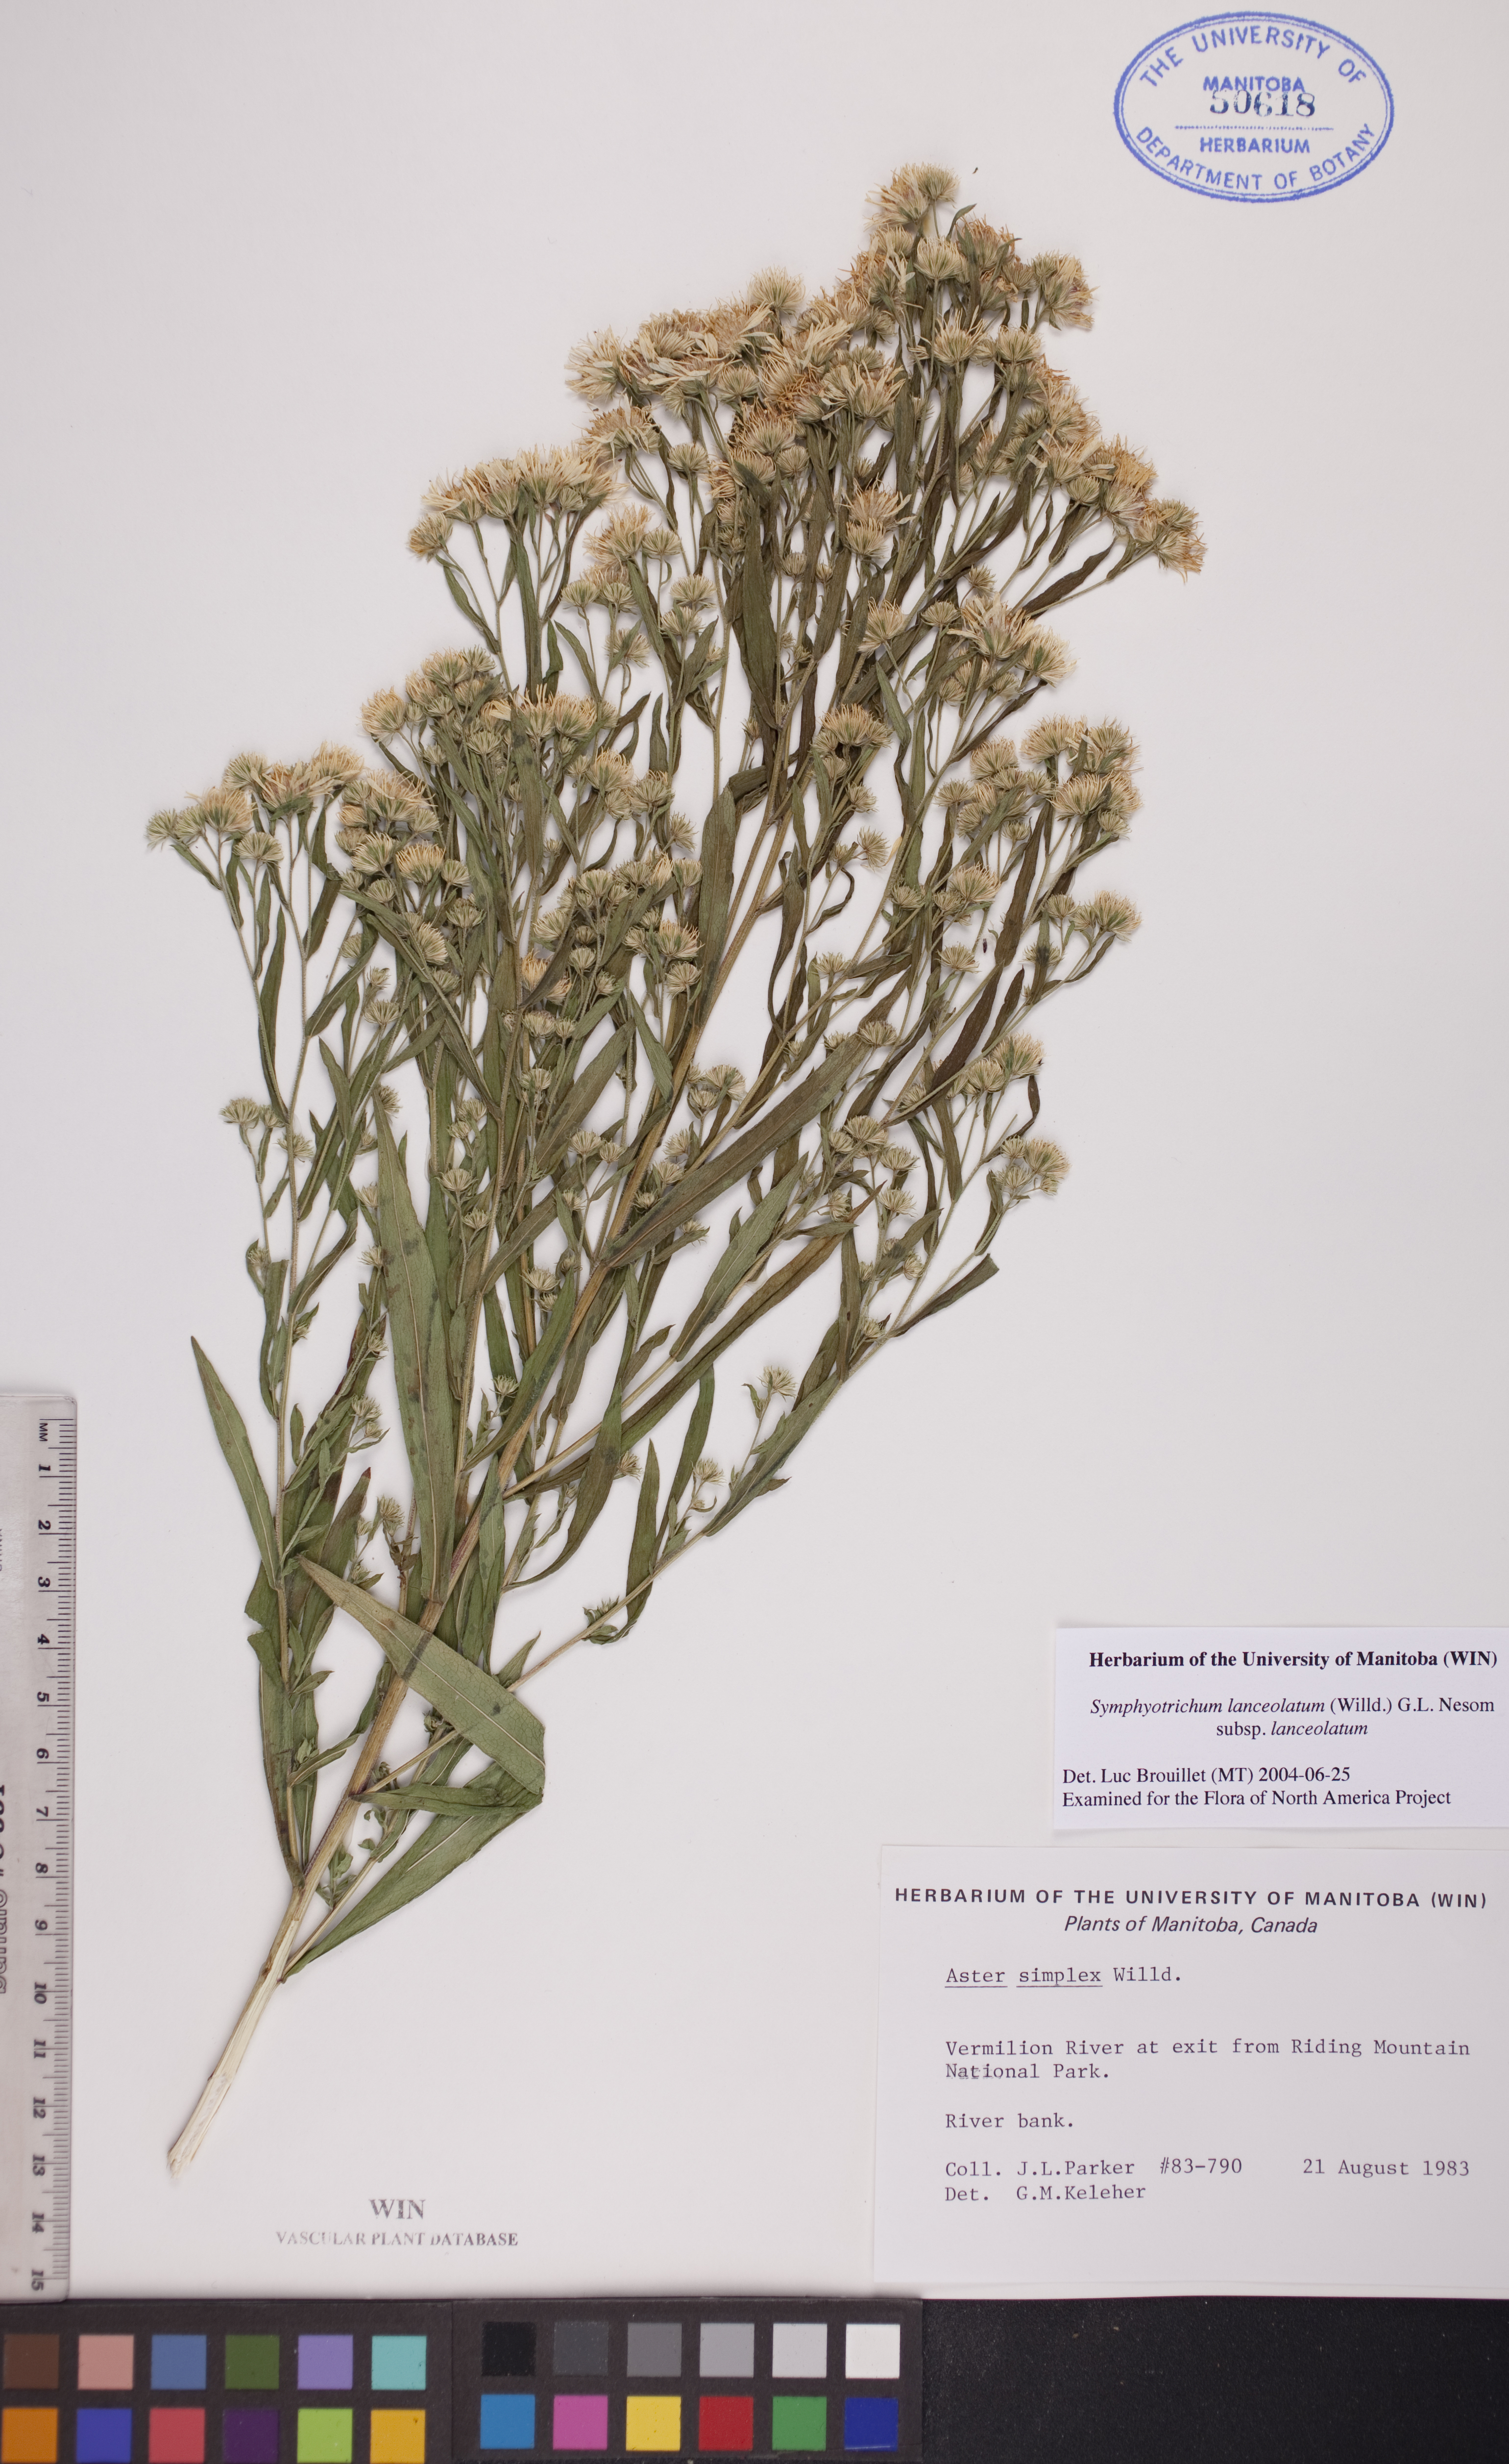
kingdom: Plantae
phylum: Tracheophyta
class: Magnoliopsida
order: Asterales
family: Asteraceae
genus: Symphyotrichum
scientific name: Symphyotrichum lanceolatum
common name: Panicled aster
